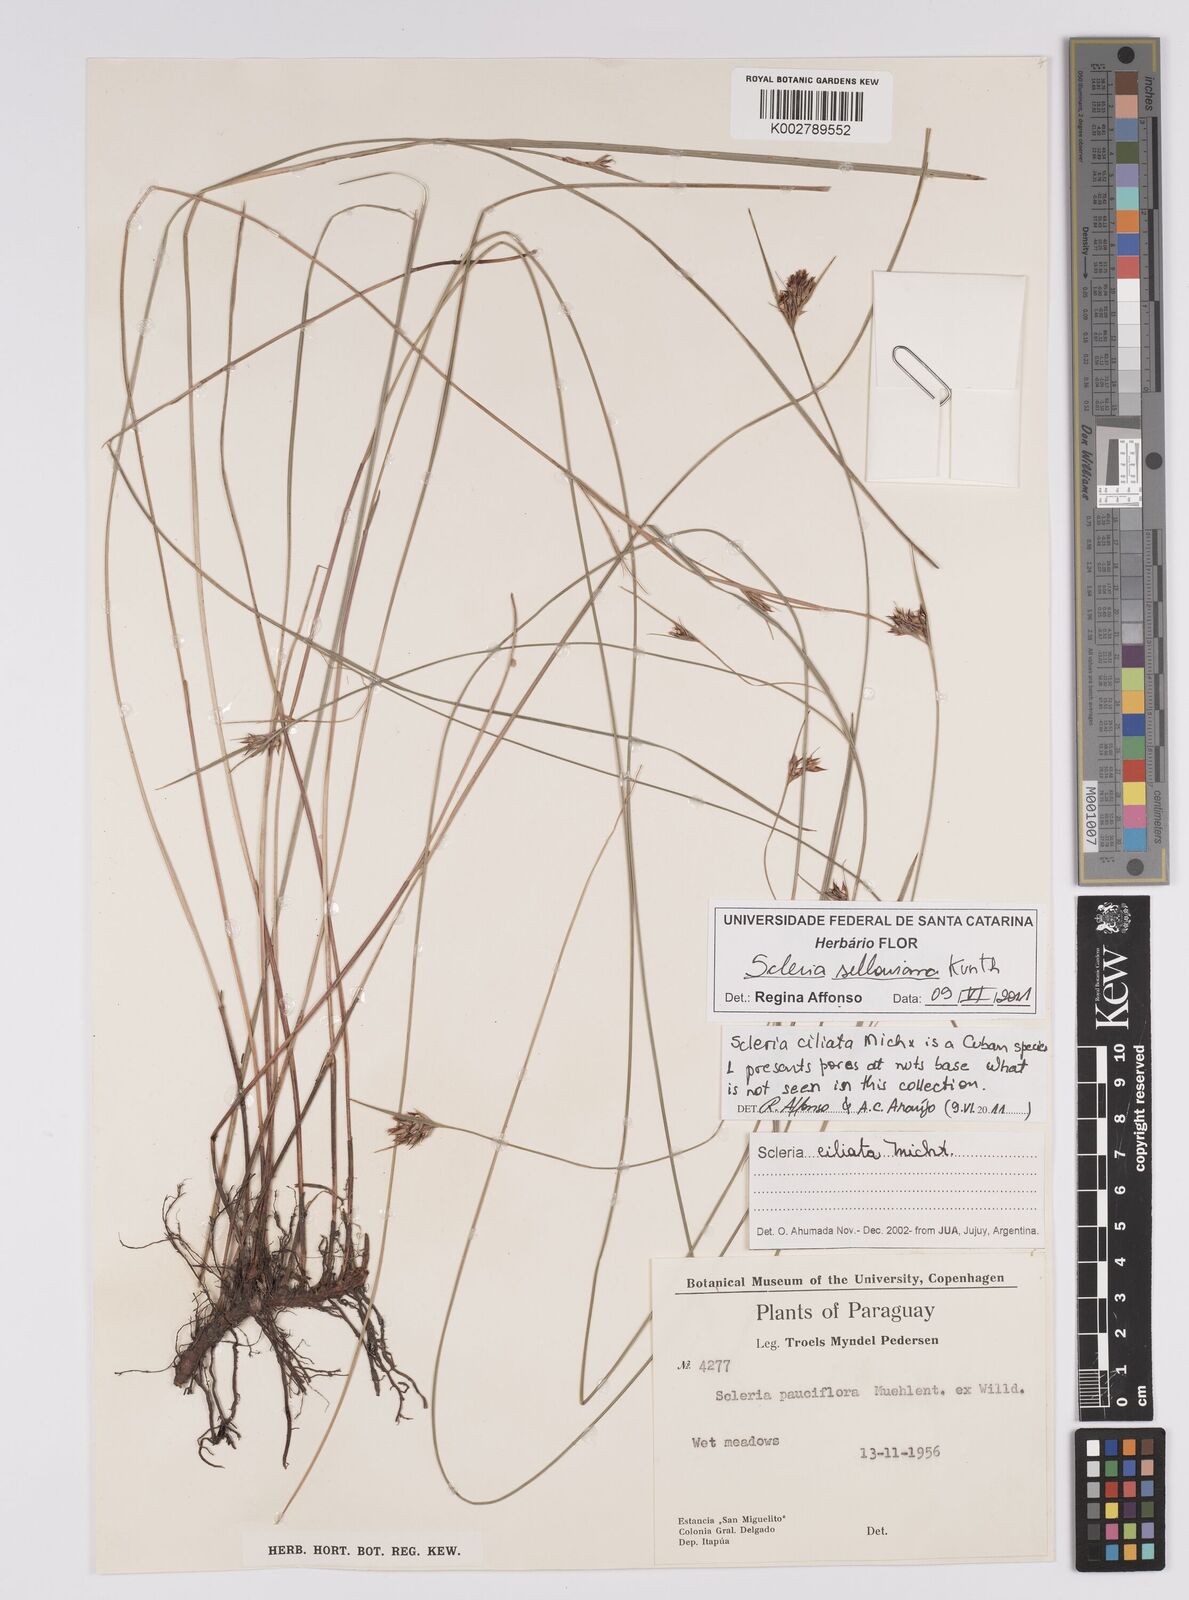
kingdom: Plantae
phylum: Tracheophyta
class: Liliopsida
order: Poales
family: Cyperaceae
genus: Scleria
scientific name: Scleria sellowiana
